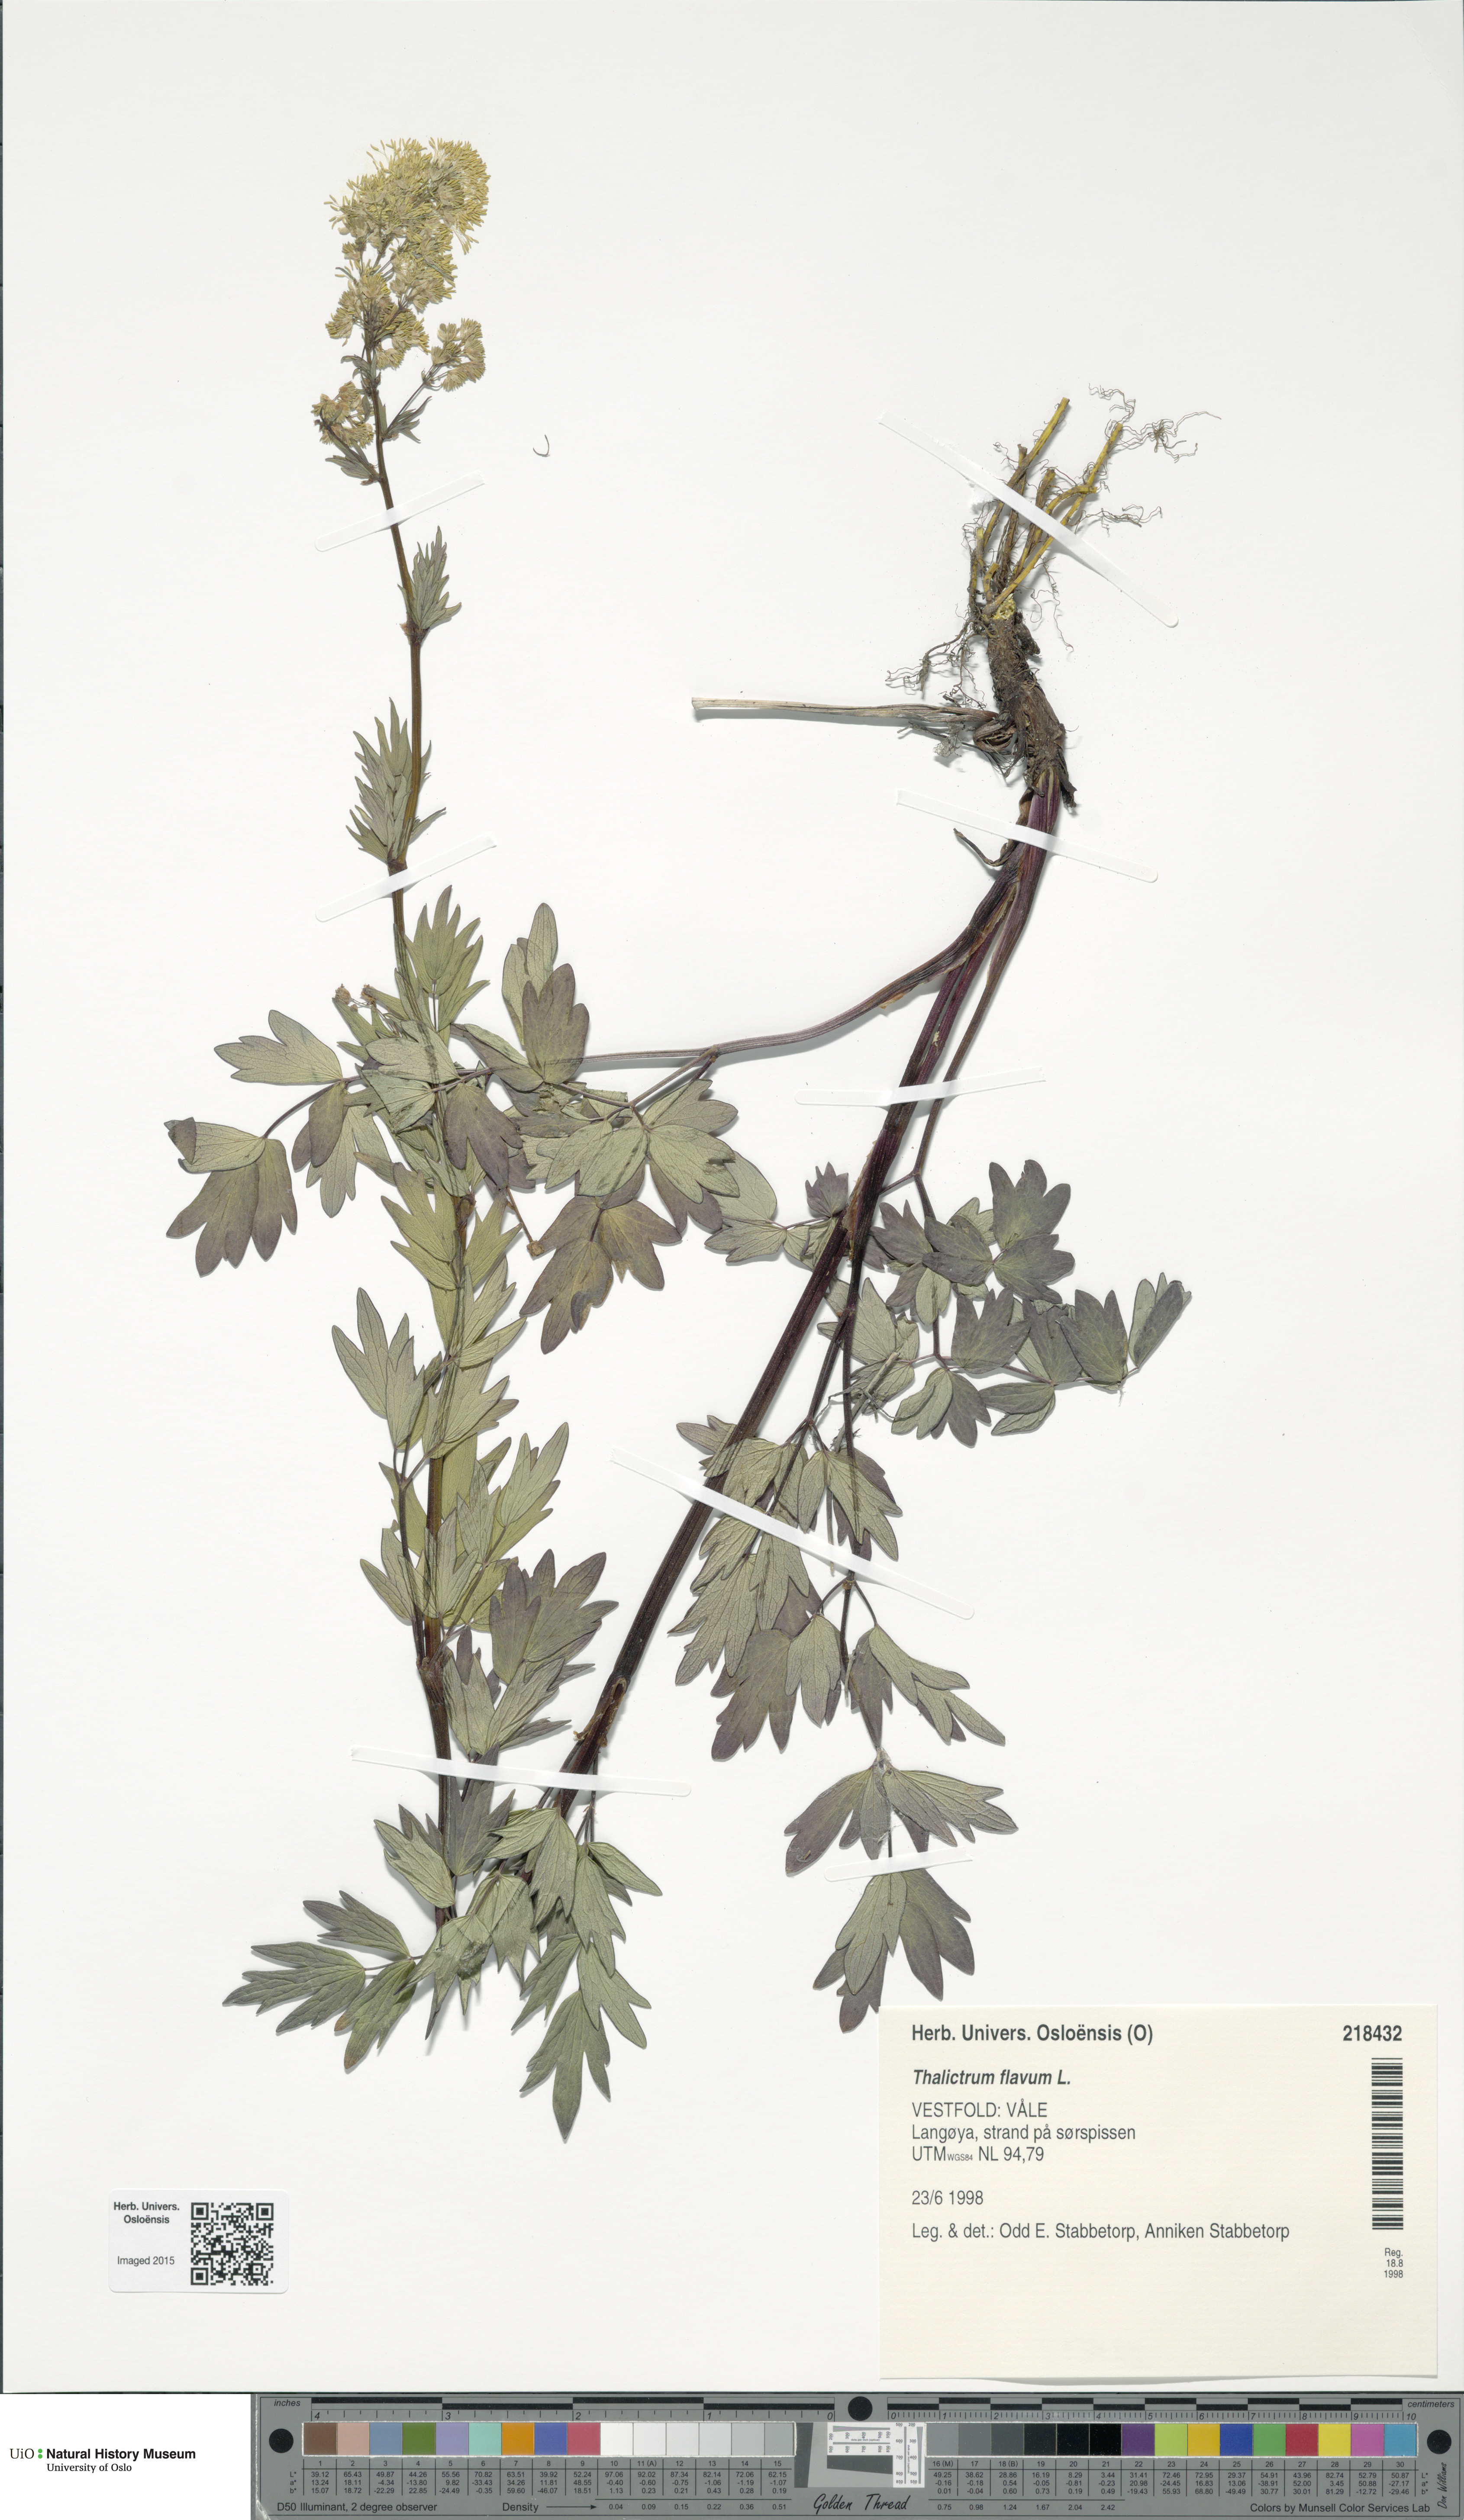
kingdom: Plantae
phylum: Tracheophyta
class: Magnoliopsida
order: Ranunculales
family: Ranunculaceae
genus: Thalictrum
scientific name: Thalictrum flavum
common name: Common meadow-rue
